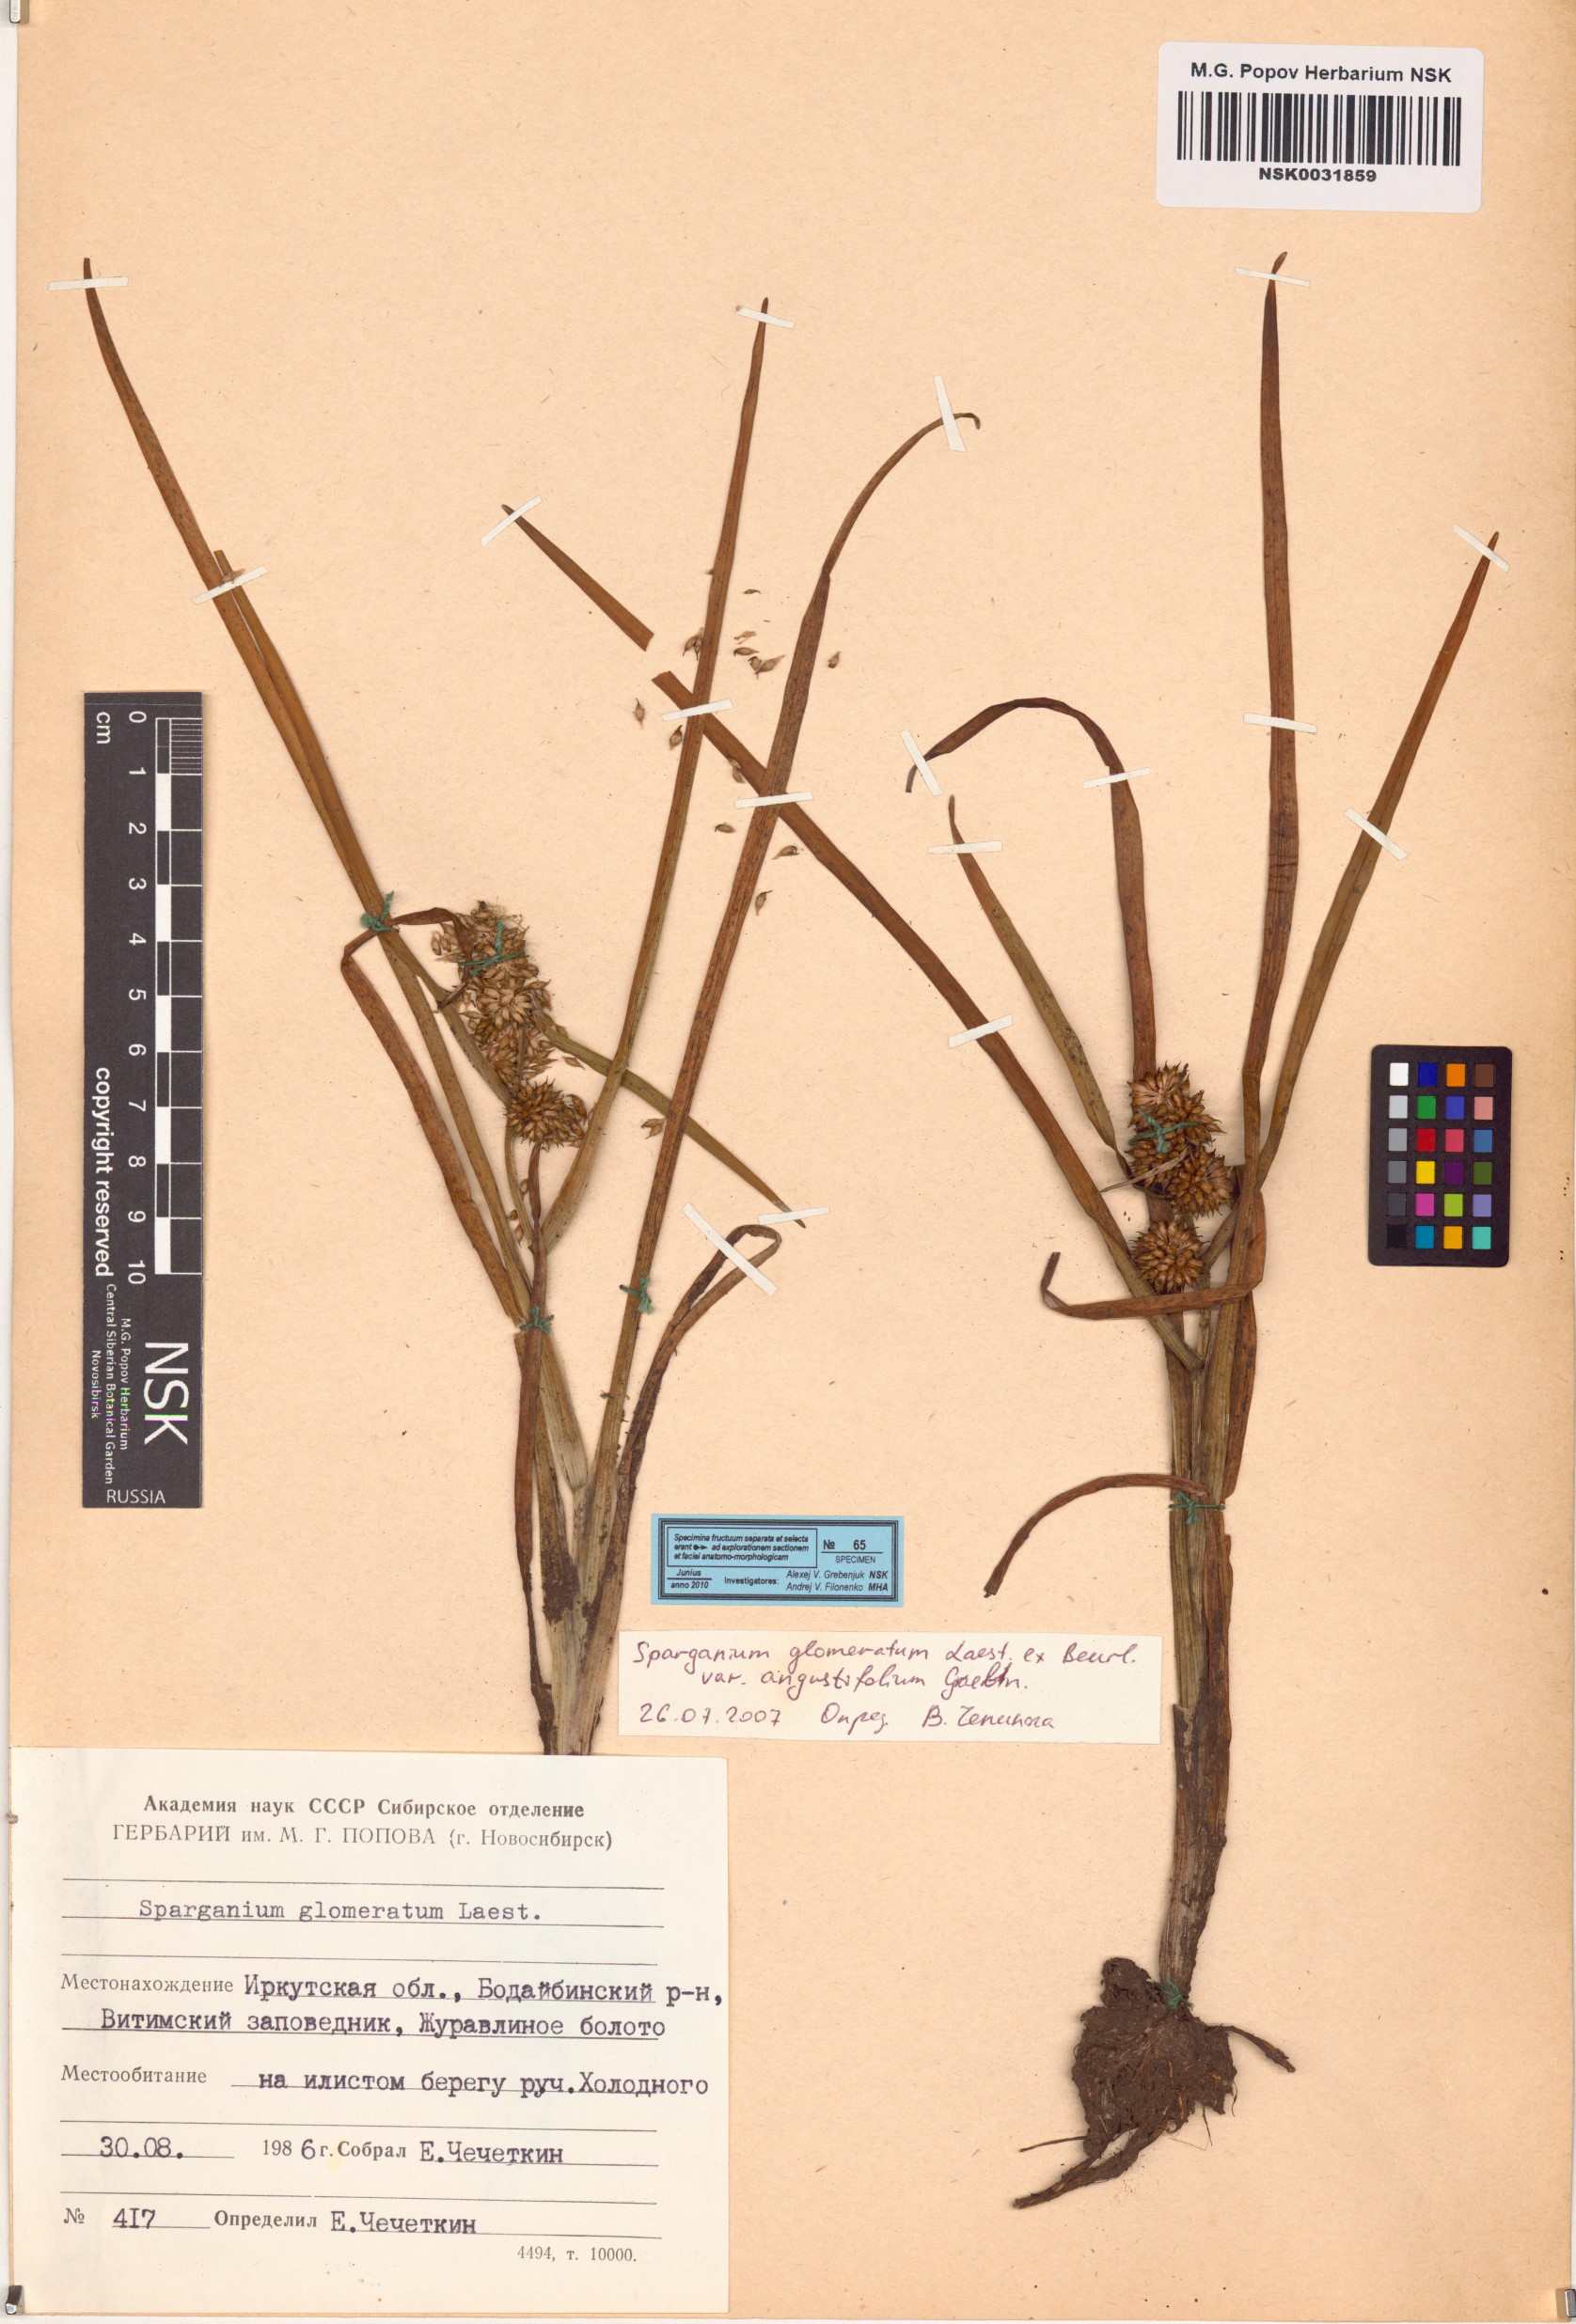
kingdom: Plantae
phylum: Tracheophyta
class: Liliopsida
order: Poales
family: Typhaceae
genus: Sparganium
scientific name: Sparganium glomeratum
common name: Clustered burreed
